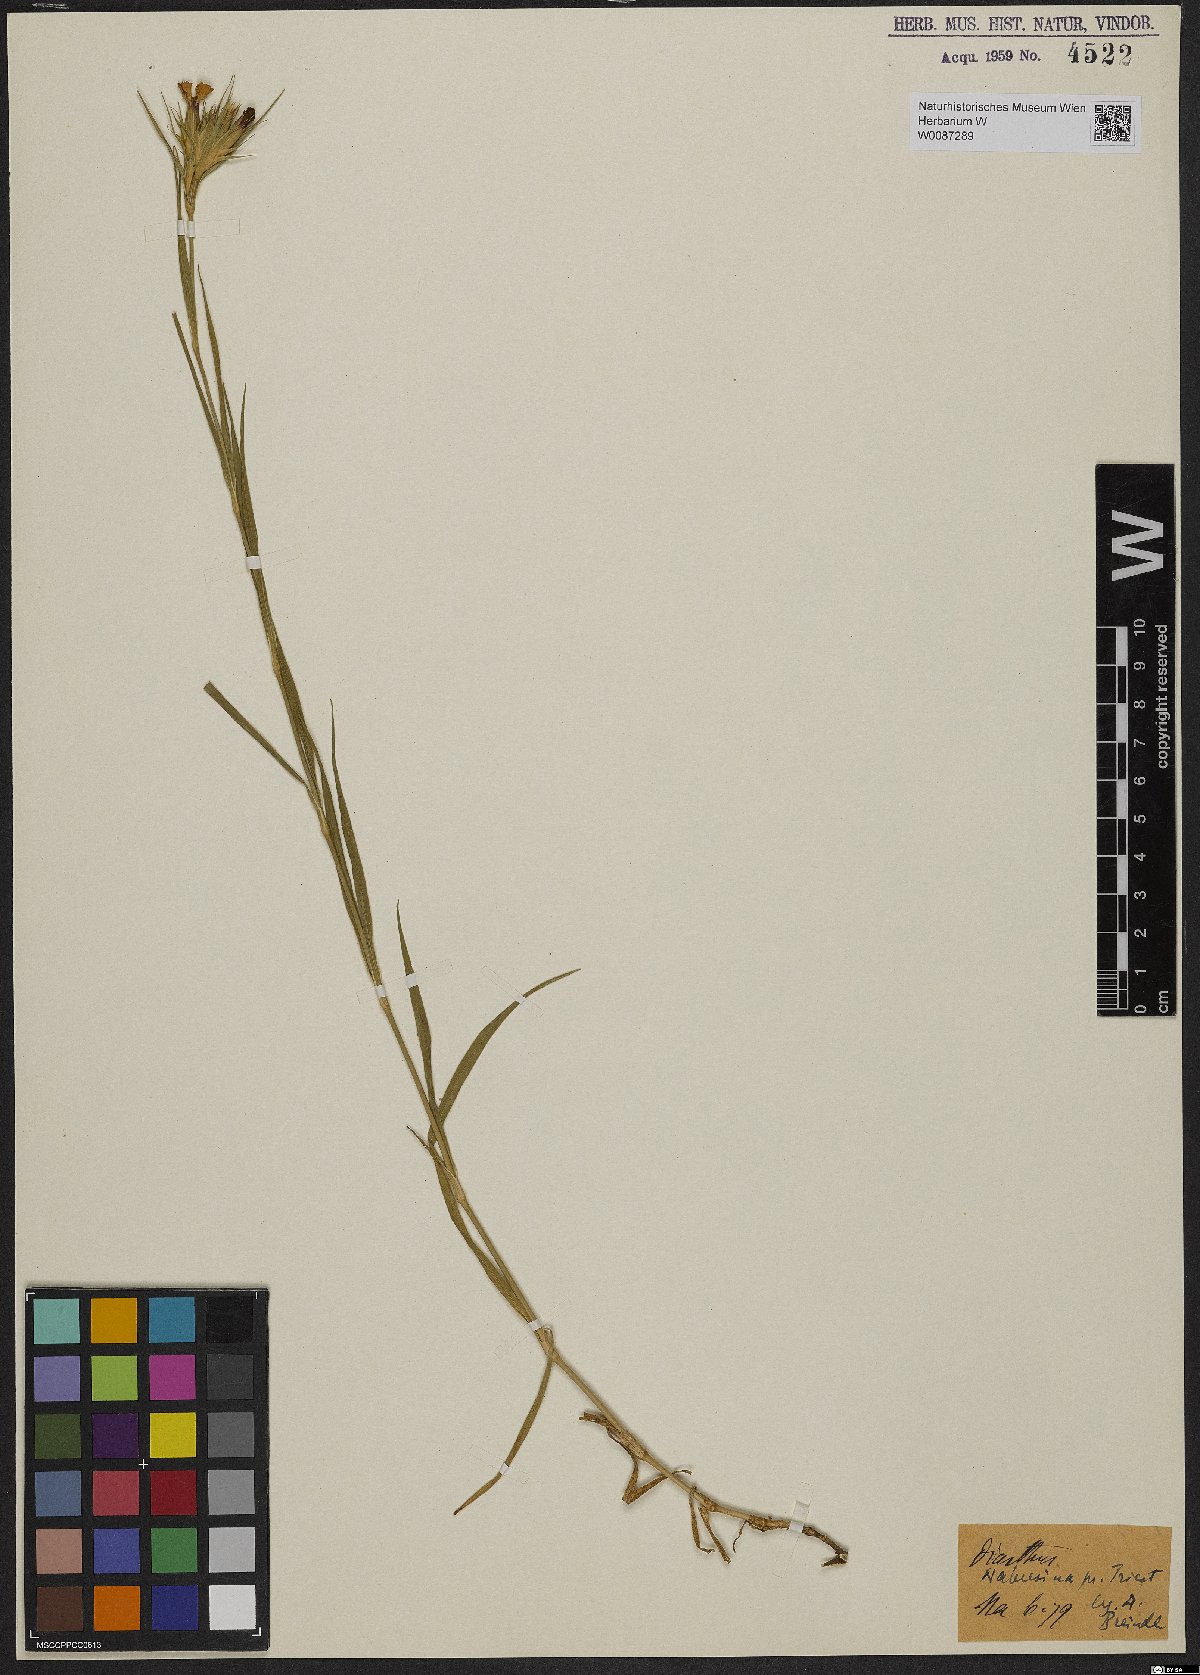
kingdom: Plantae
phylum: Tracheophyta
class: Magnoliopsida
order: Caryophyllales
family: Caryophyllaceae
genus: Dianthus
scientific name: Dianthus
